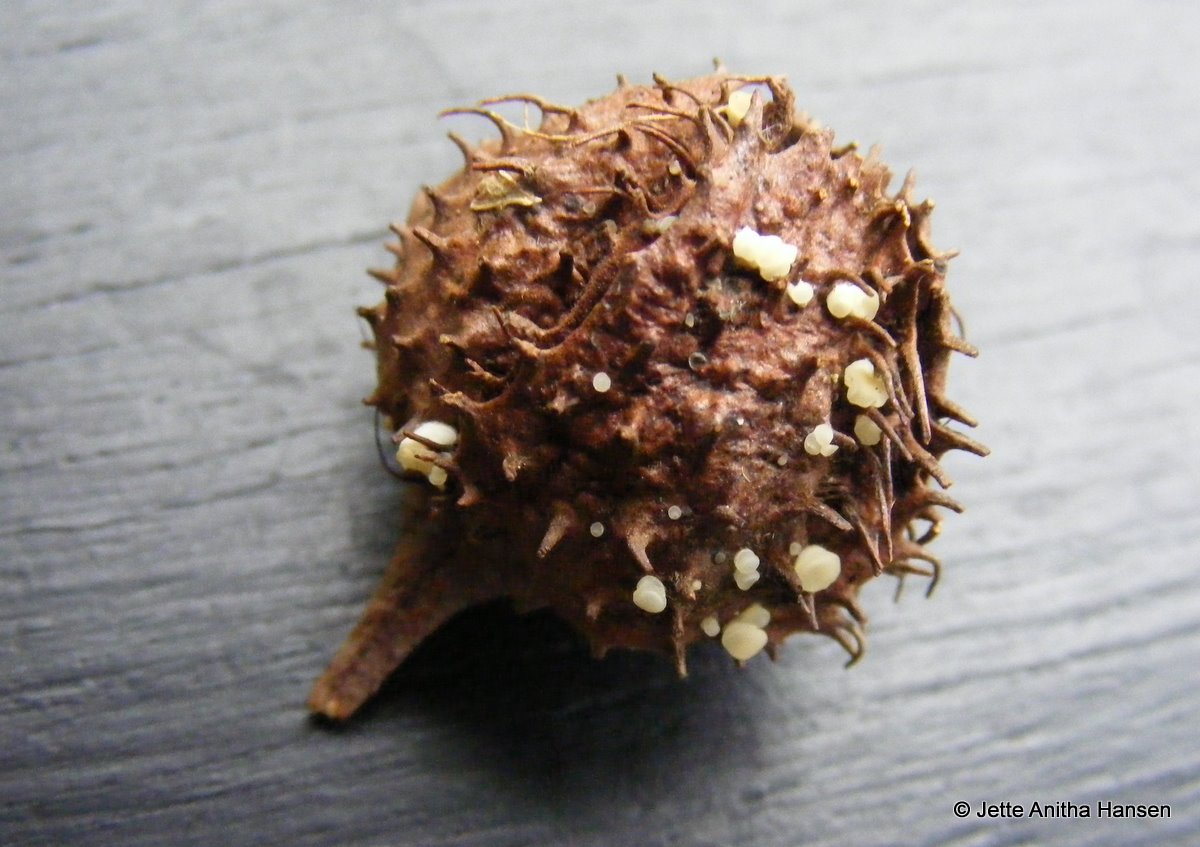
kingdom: Fungi
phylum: Ascomycota
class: Leotiomycetes
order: Helotiales
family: Helotiaceae
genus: Hymenoscyphus
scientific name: Hymenoscyphus fagineus
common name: vellugtende stilkskive
